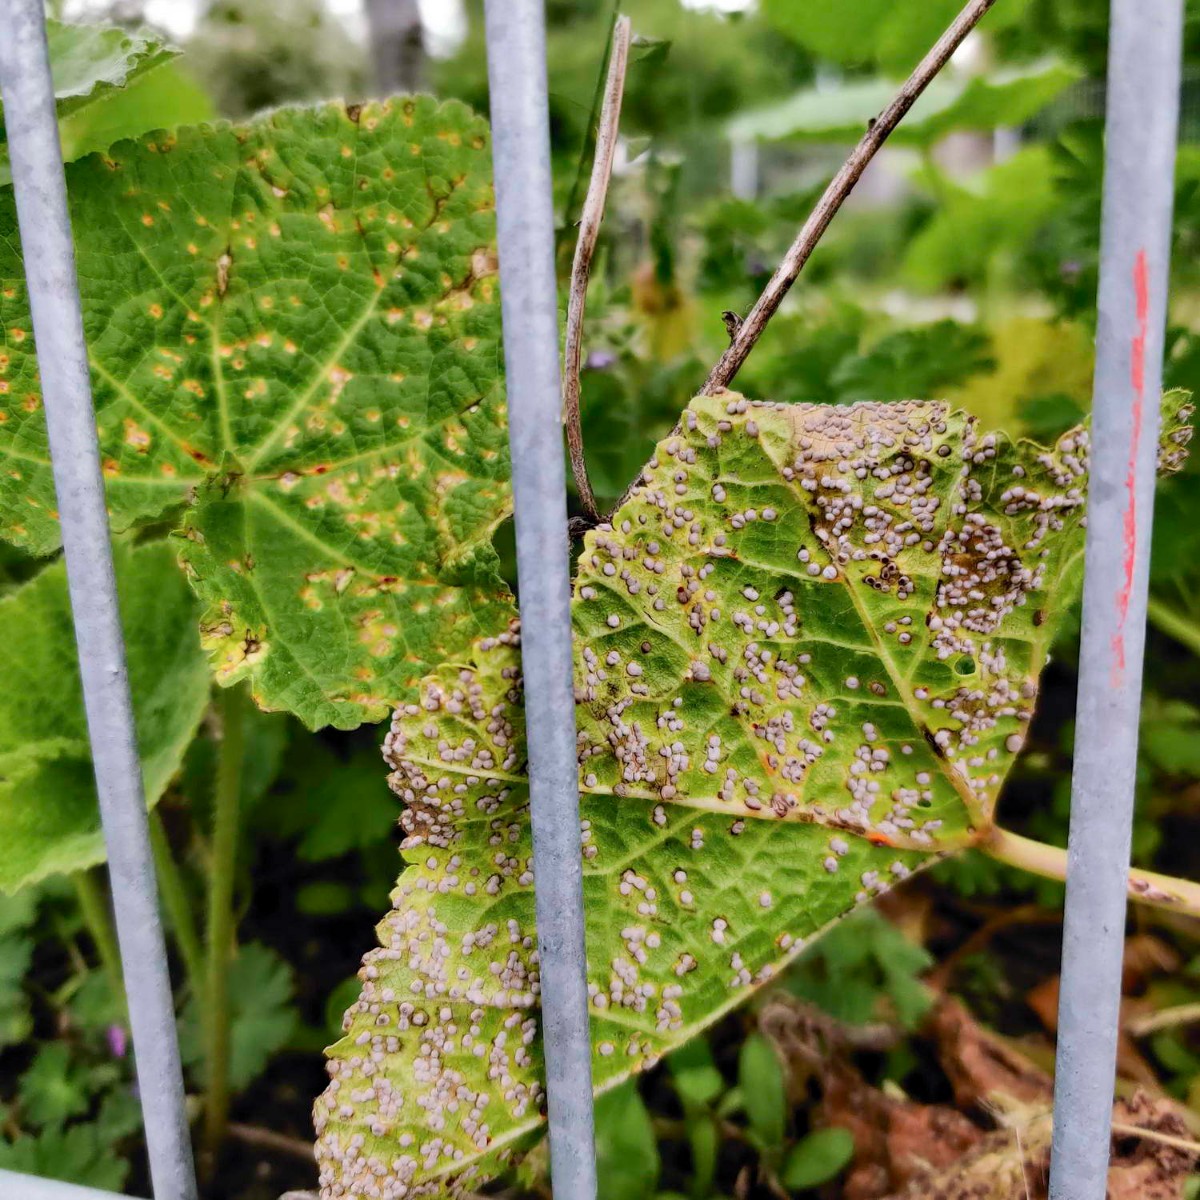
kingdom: Fungi
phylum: Basidiomycota
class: Pucciniomycetes
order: Pucciniales
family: Pucciniaceae
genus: Puccinia
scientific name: Puccinia malvacearum
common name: stokrose-tvecellerust
